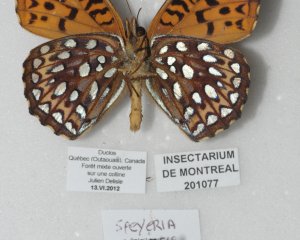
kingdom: Animalia
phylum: Arthropoda
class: Insecta
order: Lepidoptera
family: Nymphalidae
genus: Speyeria
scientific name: Speyeria atlantis
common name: Atlantis Fritillary
